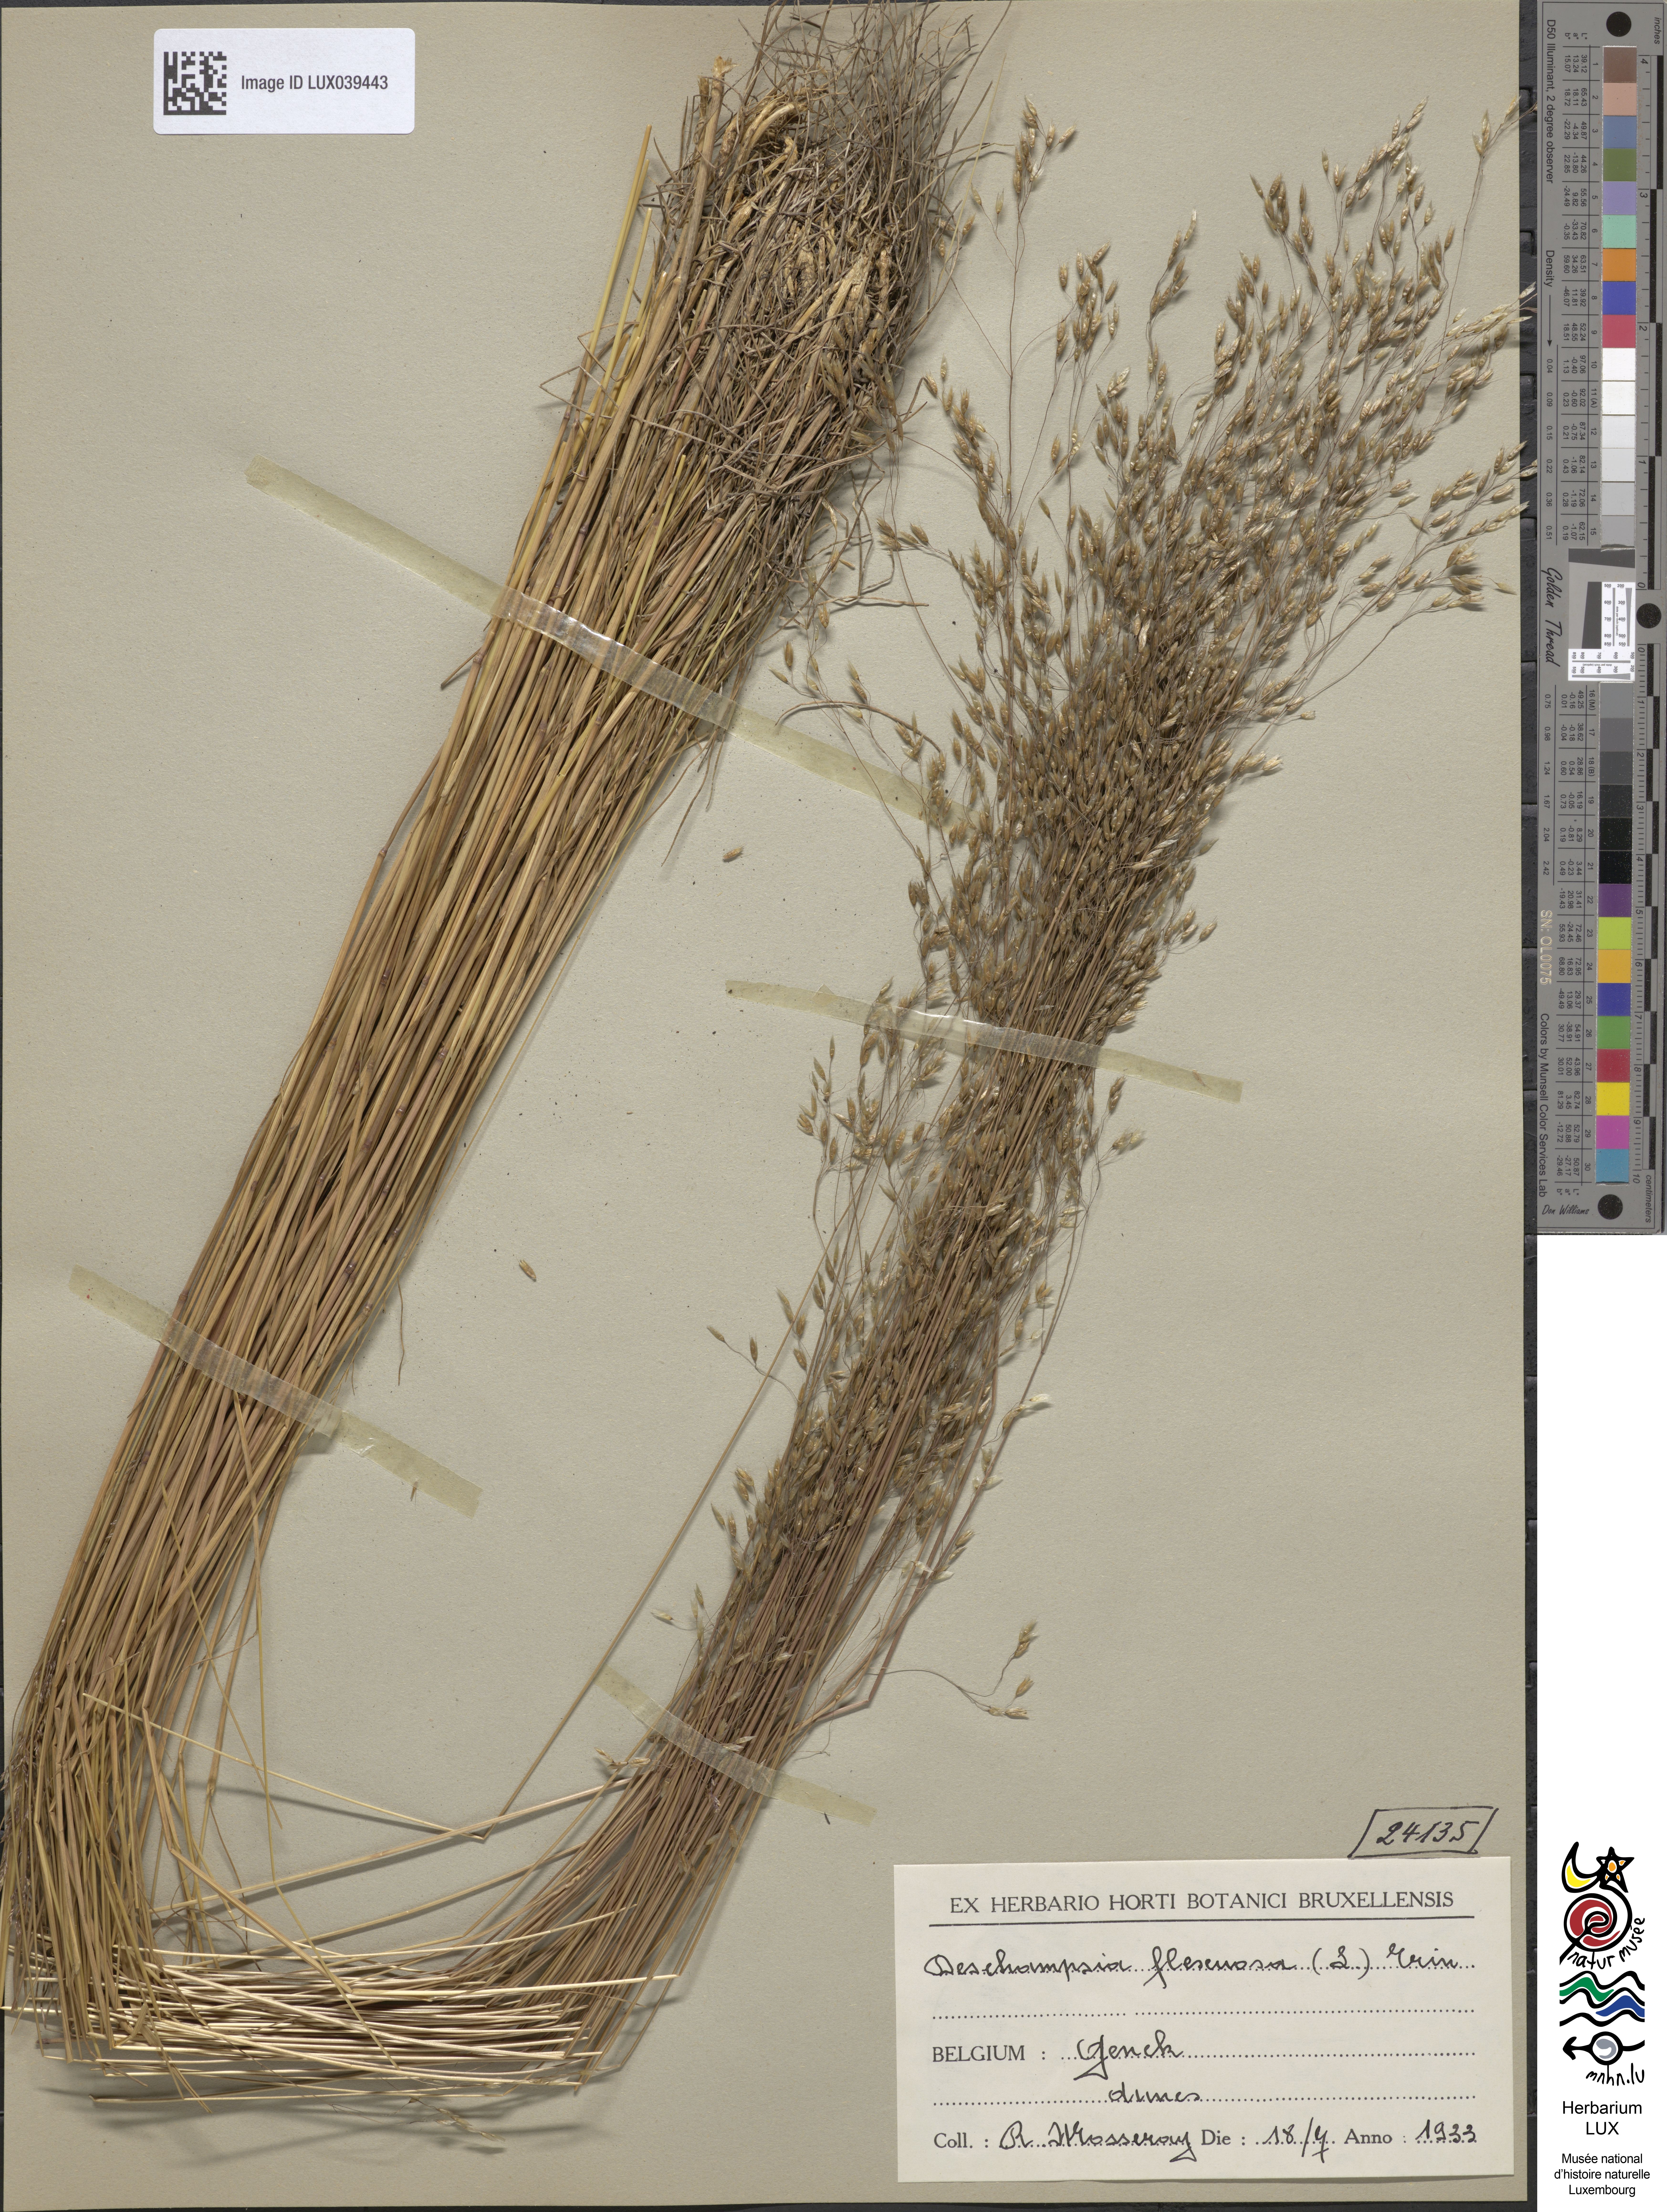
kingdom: Plantae
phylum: Tracheophyta
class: Liliopsida
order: Poales
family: Poaceae
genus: Avenella
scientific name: Avenella flexuosa
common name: Wavy hairgrass
